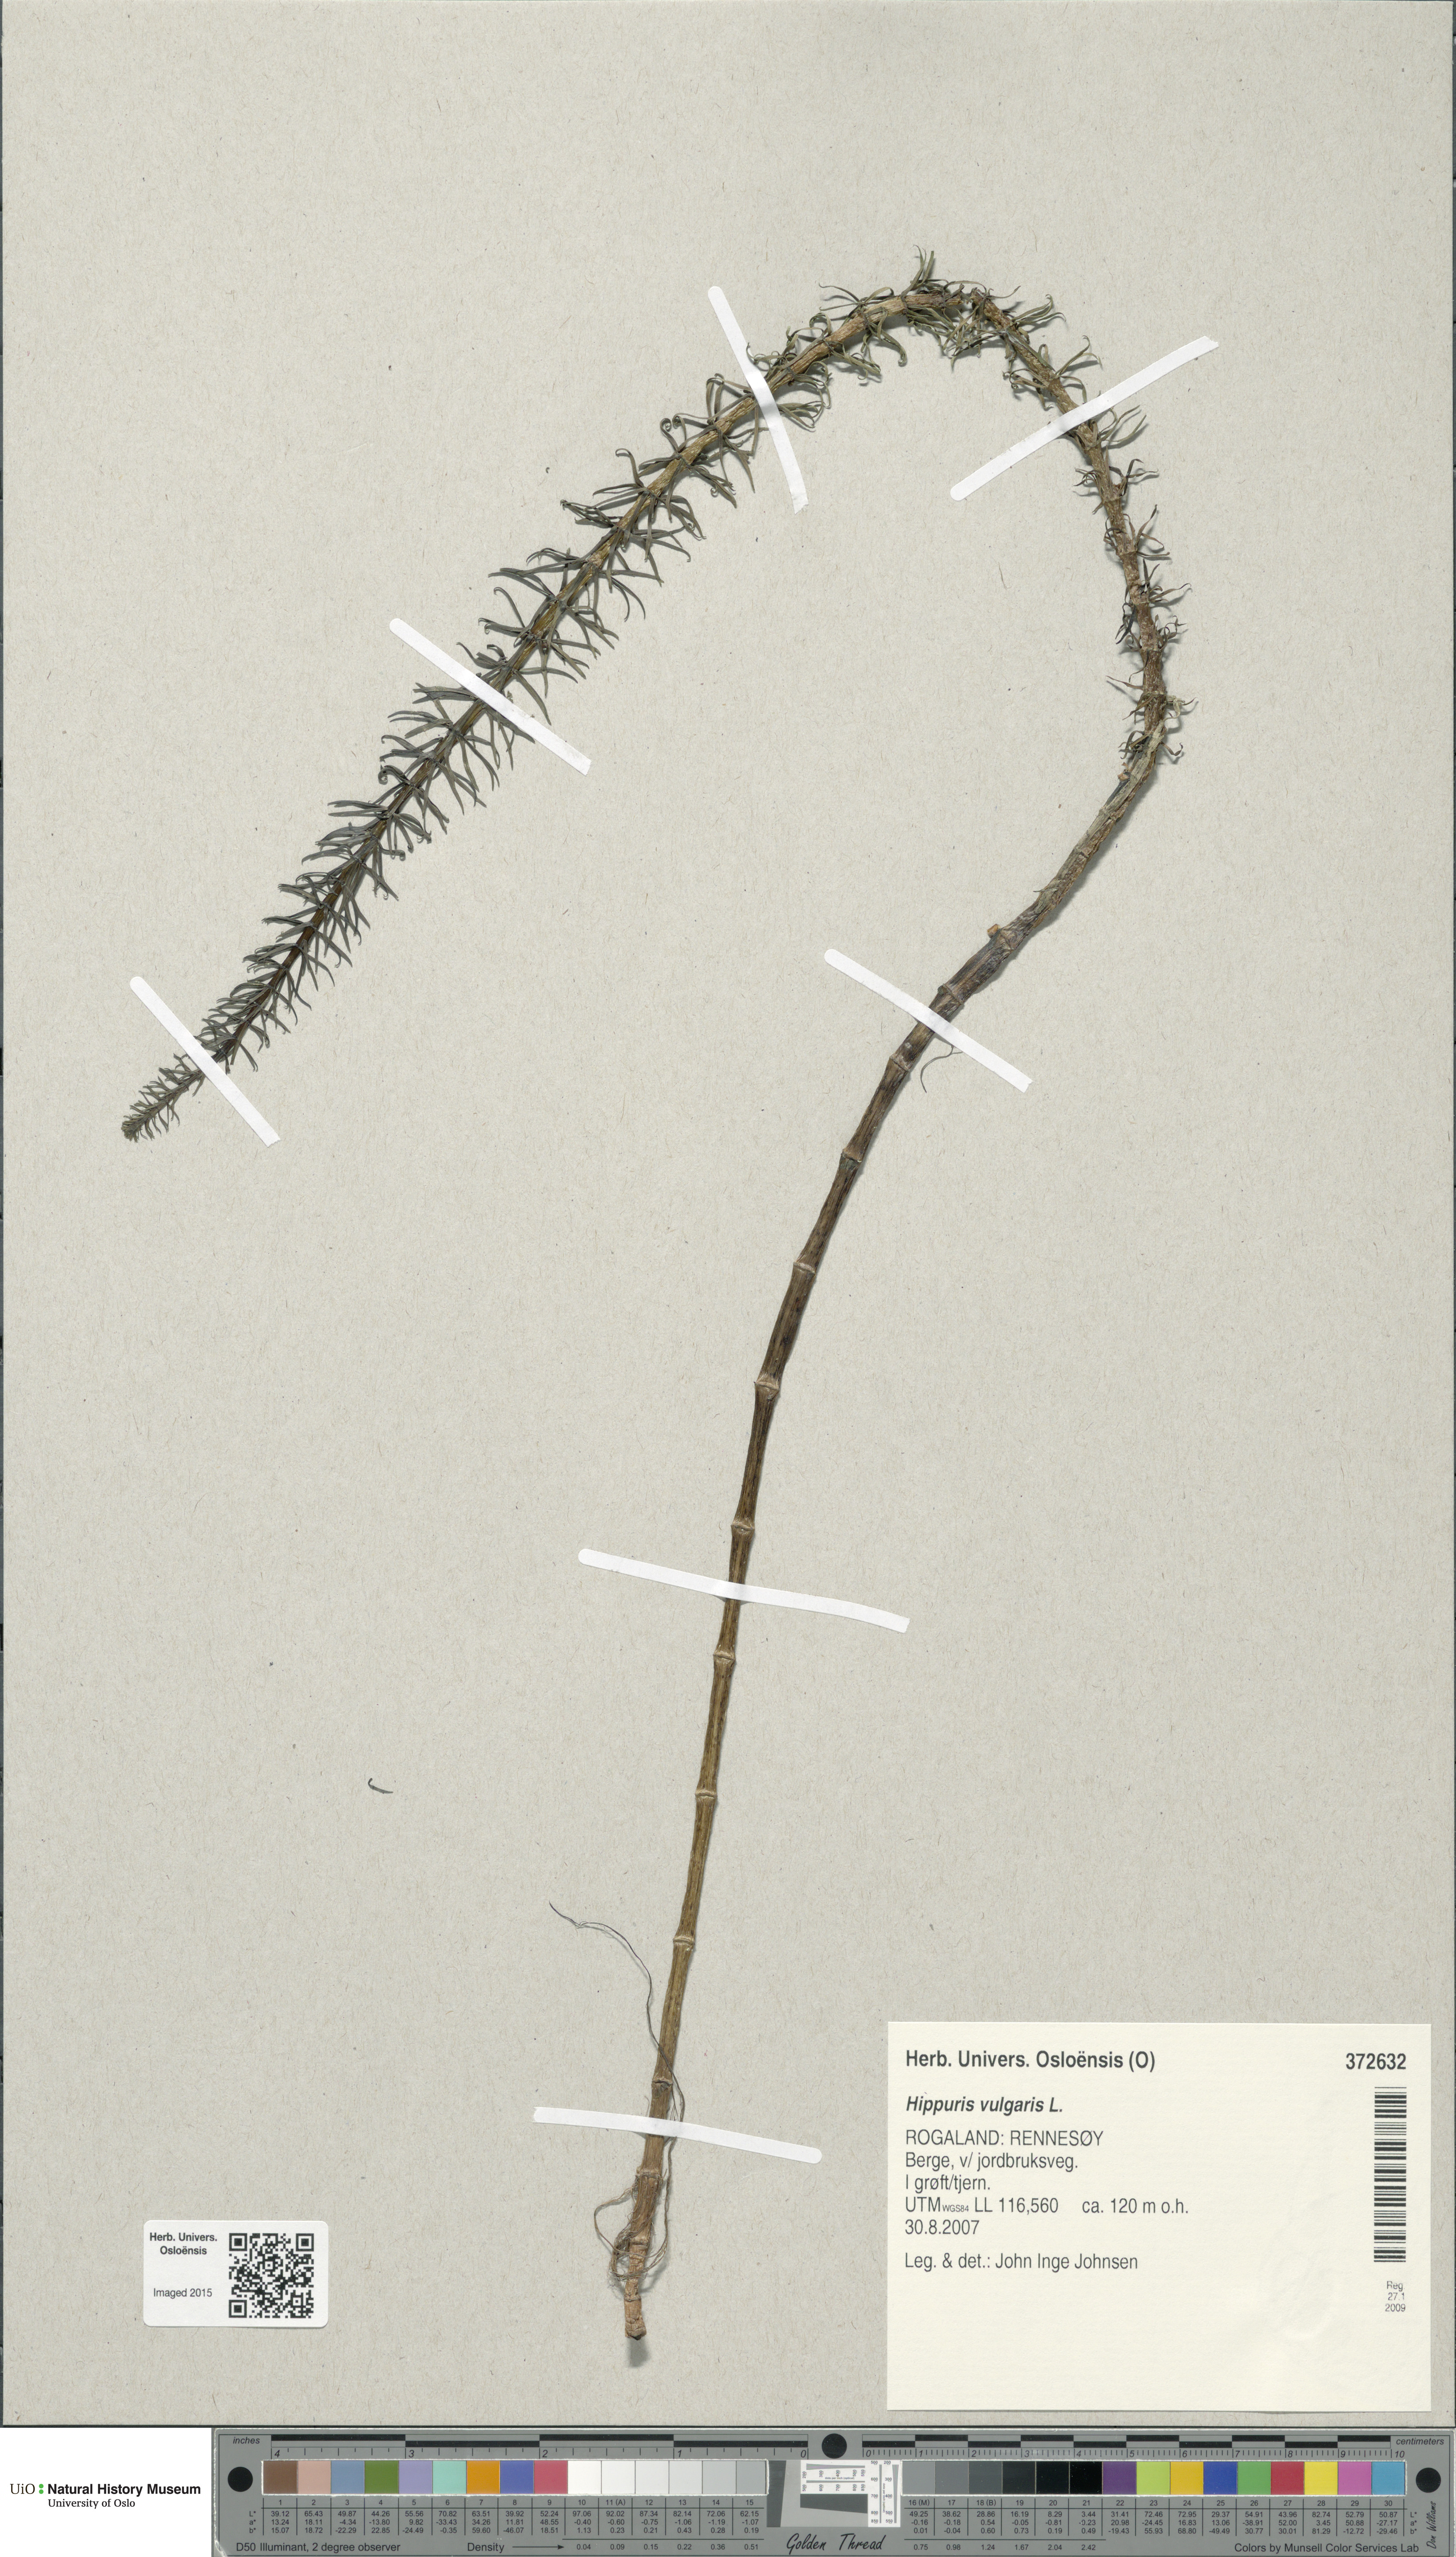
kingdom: Plantae
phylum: Tracheophyta
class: Magnoliopsida
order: Lamiales
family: Plantaginaceae
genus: Hippuris
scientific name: Hippuris vulgaris
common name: Mare's-tail
